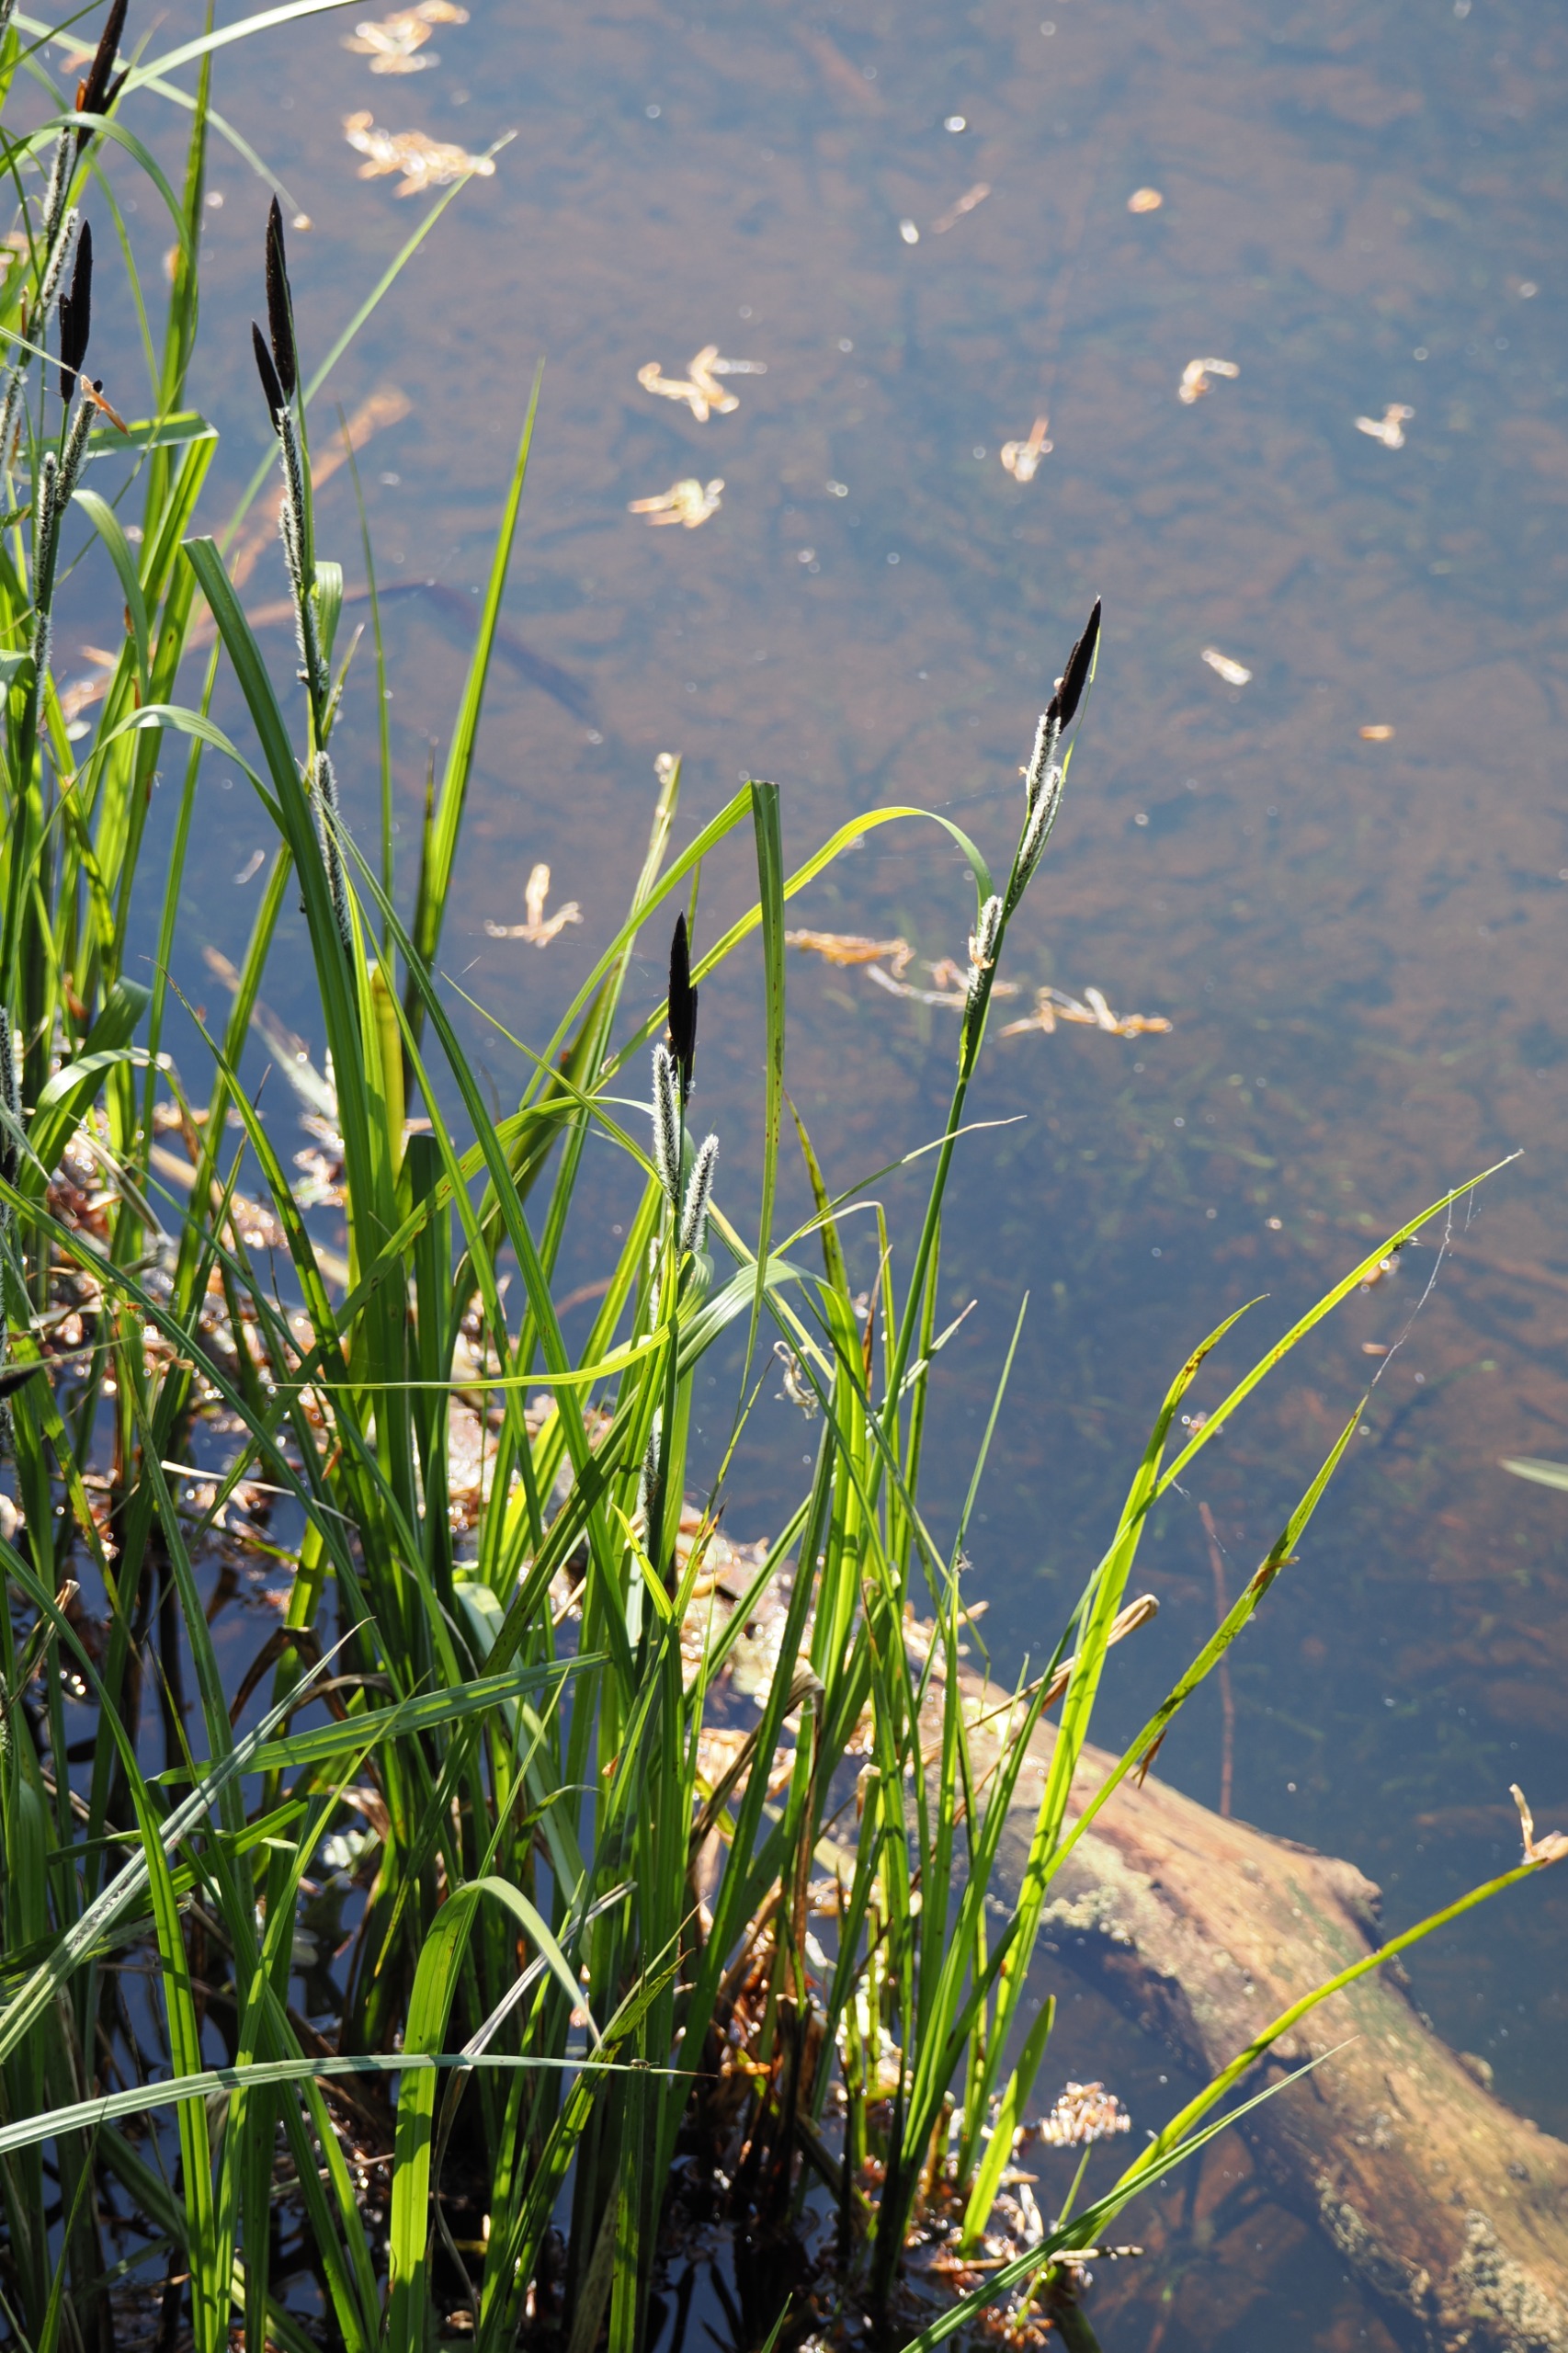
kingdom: Plantae
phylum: Tracheophyta
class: Liliopsida
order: Poales
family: Cyperaceae
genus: Carex
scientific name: Carex acuta
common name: Nikkende star
